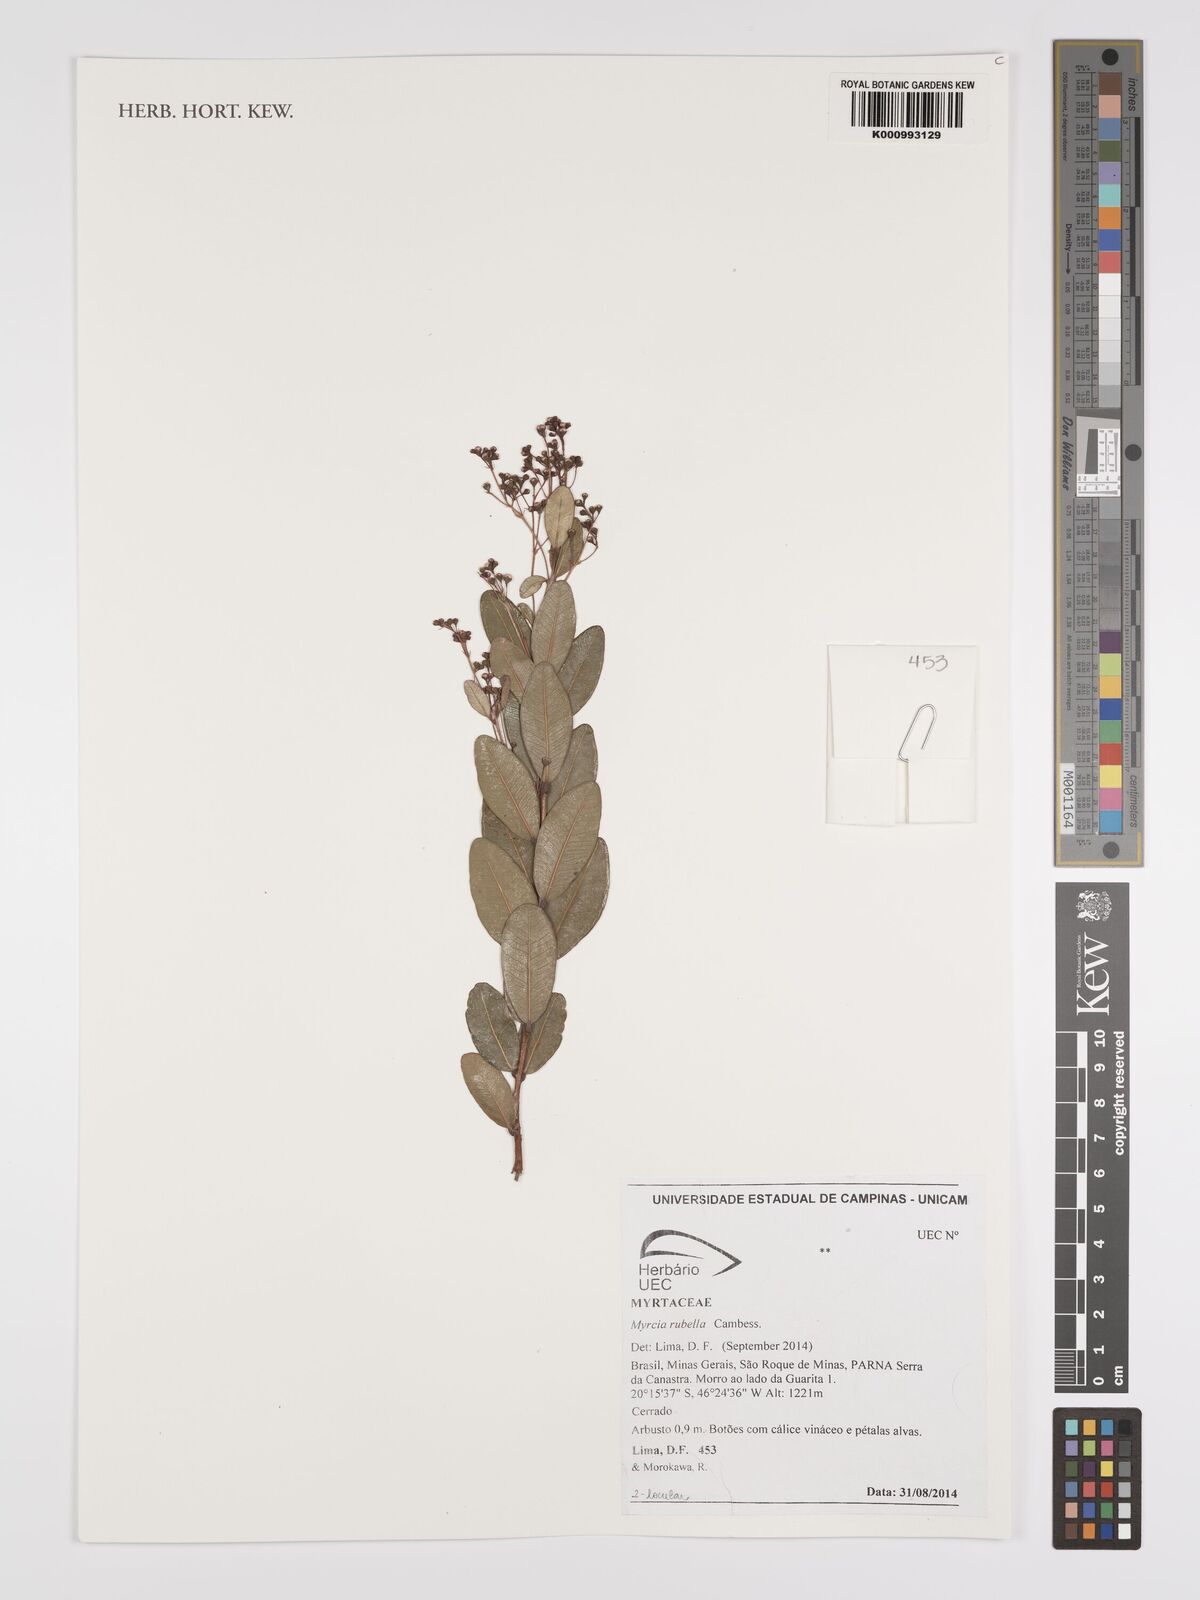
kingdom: Plantae
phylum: Tracheophyta
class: Magnoliopsida
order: Myrtales
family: Myrtaceae
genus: Myrcia
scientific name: Myrcia guianensis
